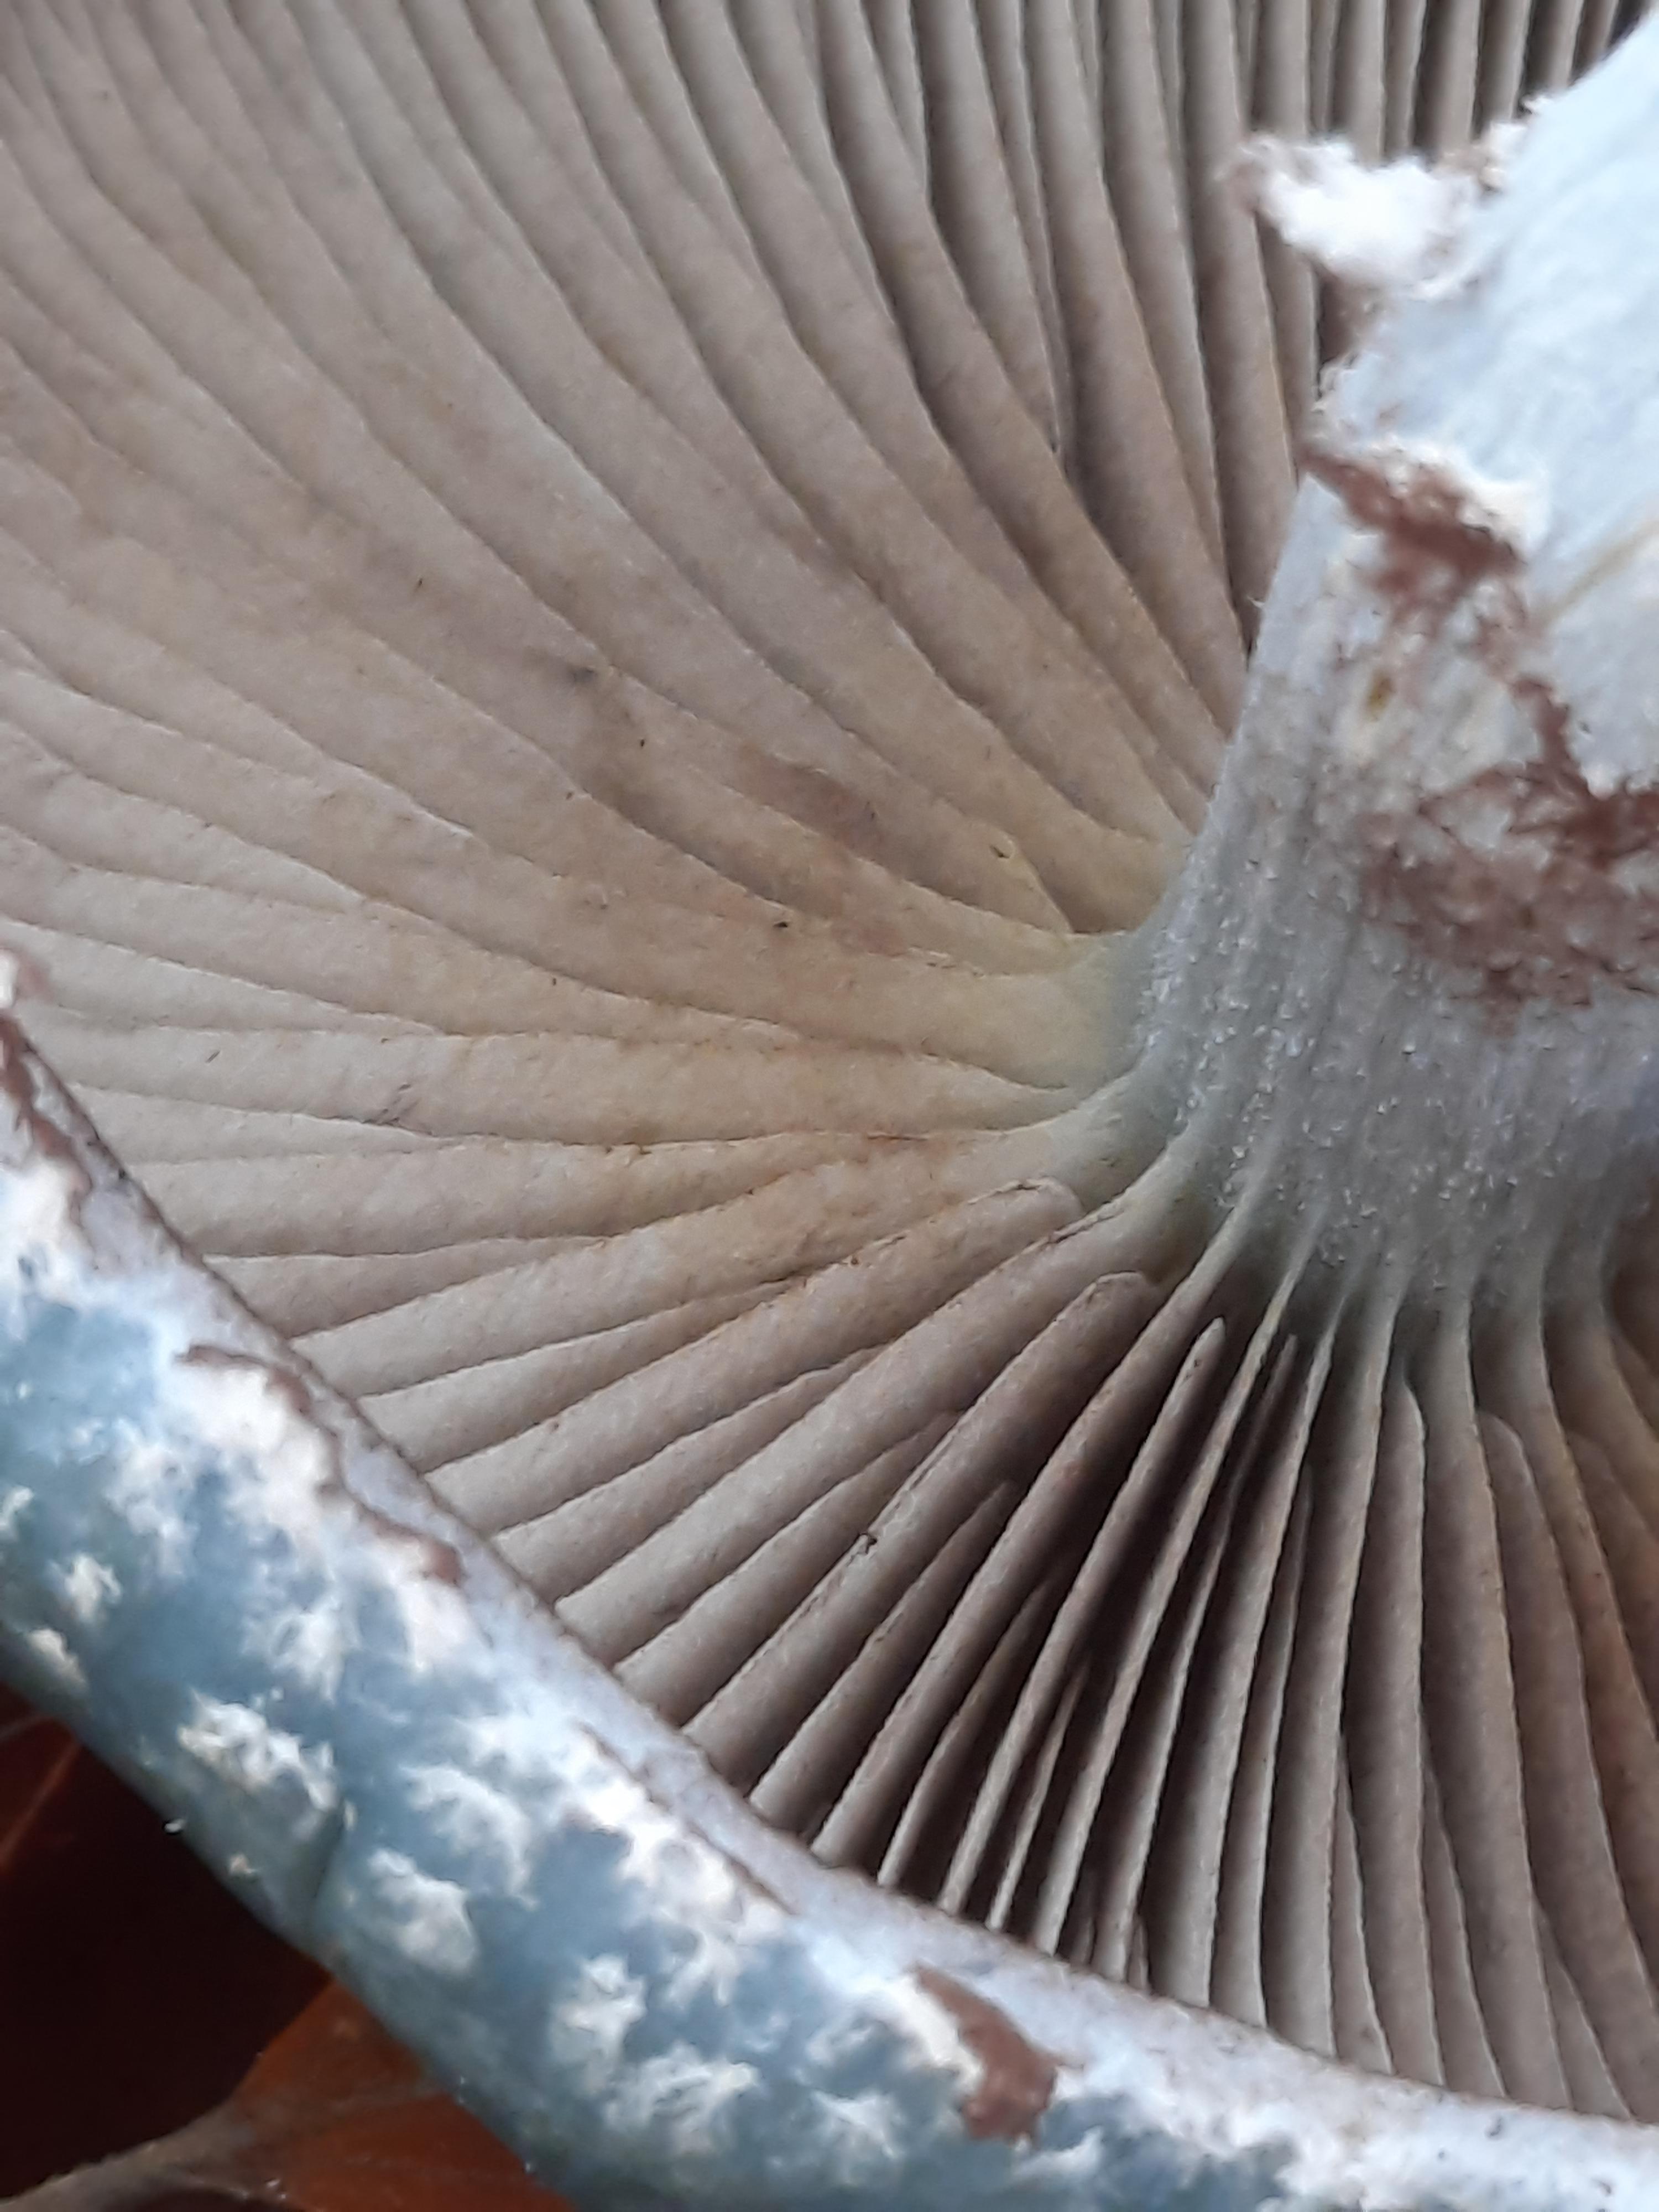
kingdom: Fungi
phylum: Basidiomycota
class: Agaricomycetes
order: Agaricales
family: Strophariaceae
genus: Stropharia
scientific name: Stropharia aeruginosa
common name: spanskgrøn bredblad
